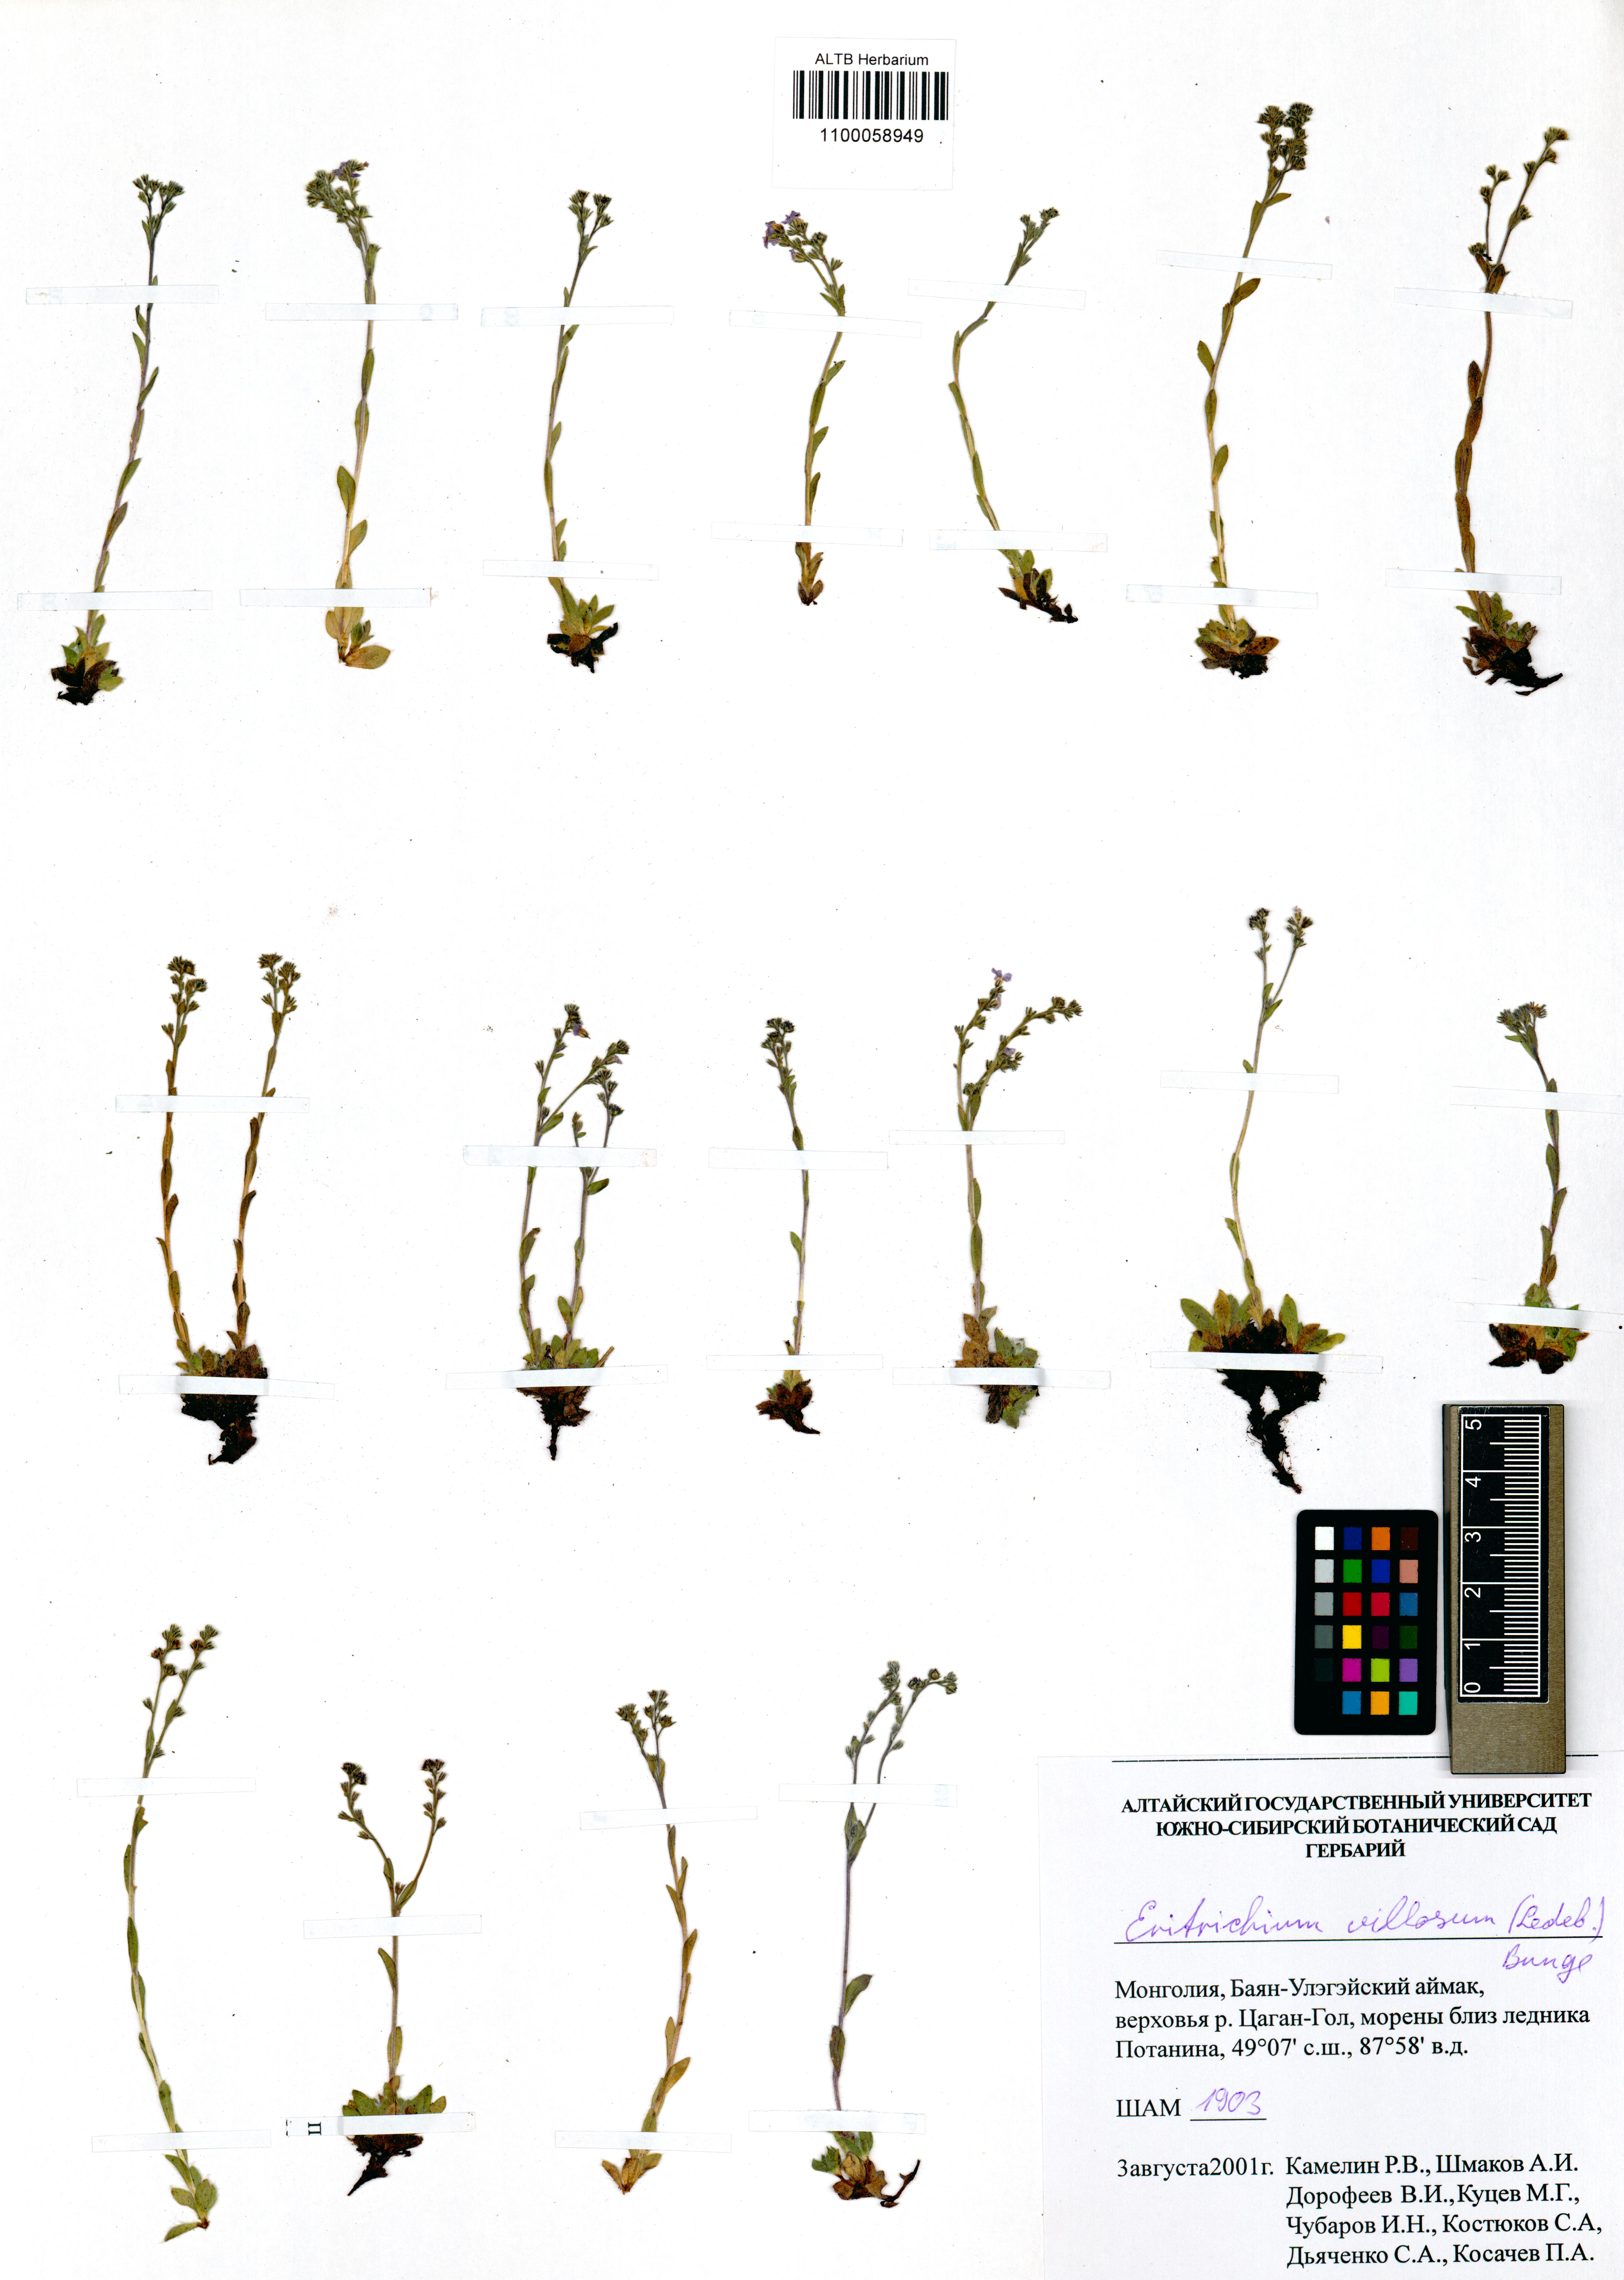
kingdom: Plantae
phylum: Tracheophyta
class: Magnoliopsida
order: Boraginales
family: Boraginaceae
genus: Eritrichium
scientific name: Eritrichium villosum
